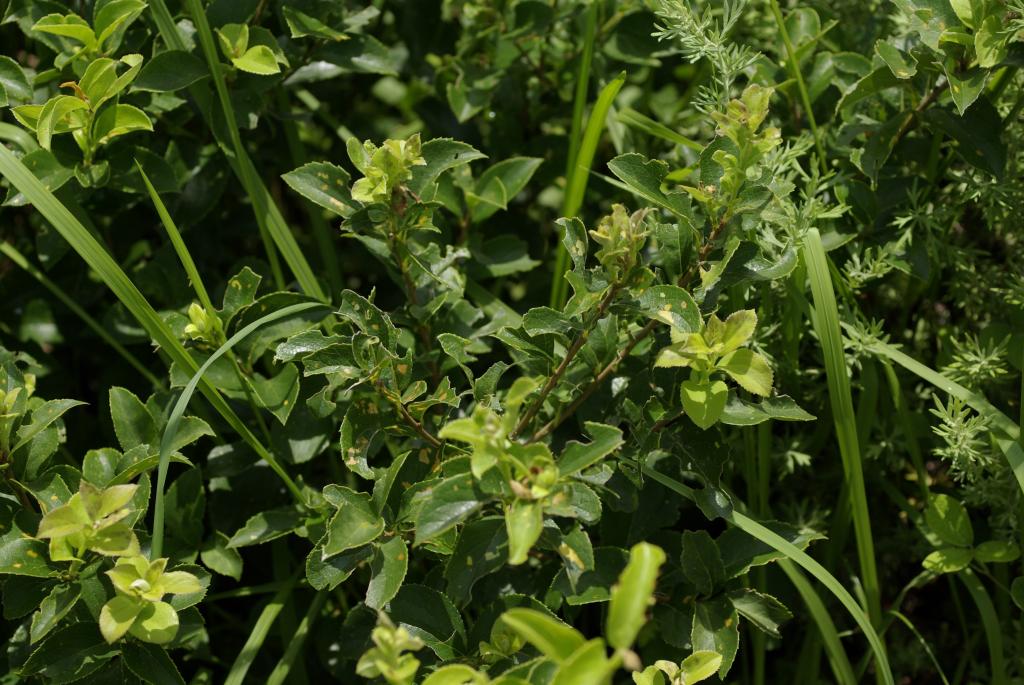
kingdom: Plantae
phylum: Tracheophyta
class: Magnoliopsida
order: Ericales
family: Symplocaceae
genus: Symplocos
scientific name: Symplocos paniculata
